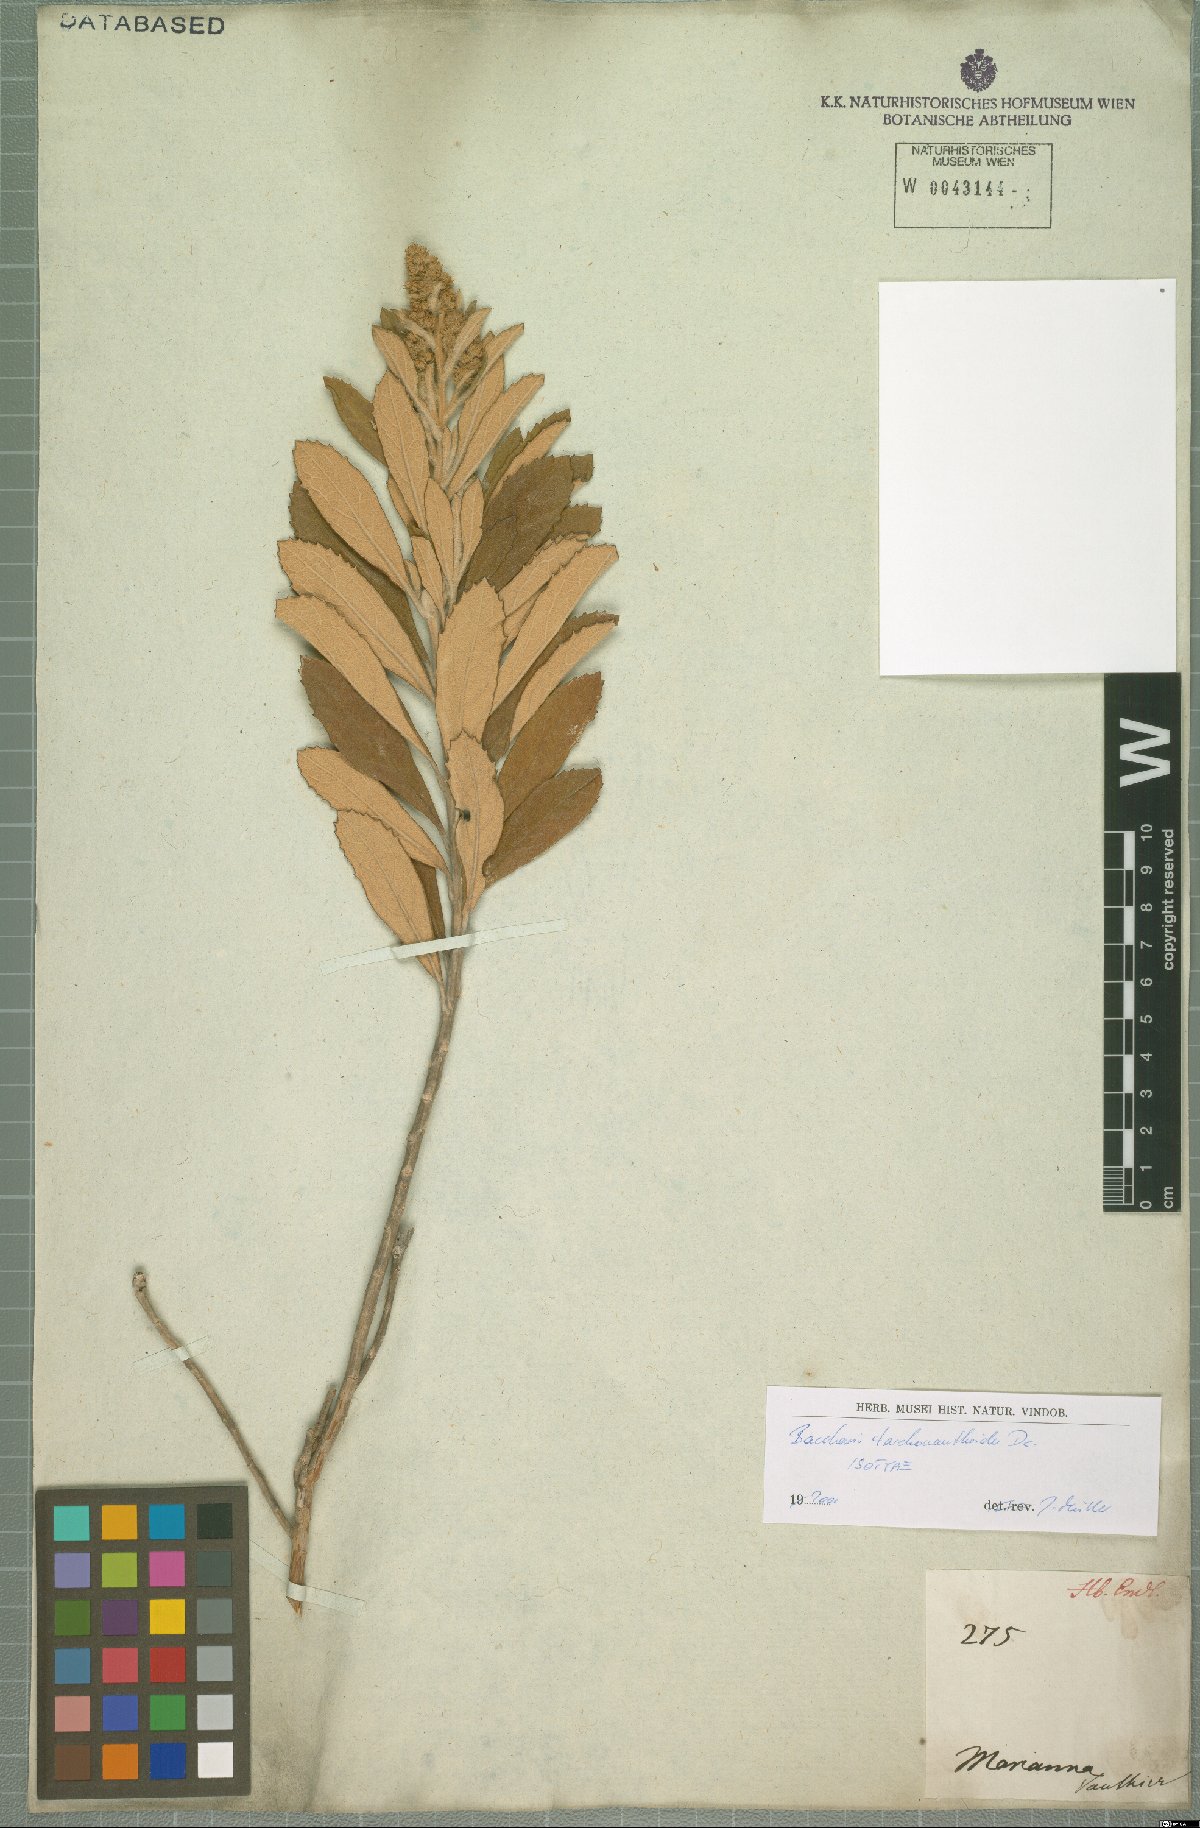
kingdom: Plantae
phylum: Tracheophyta
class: Magnoliopsida
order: Asterales
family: Asteraceae
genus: Baccharis
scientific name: Baccharis tarchonanthoides
